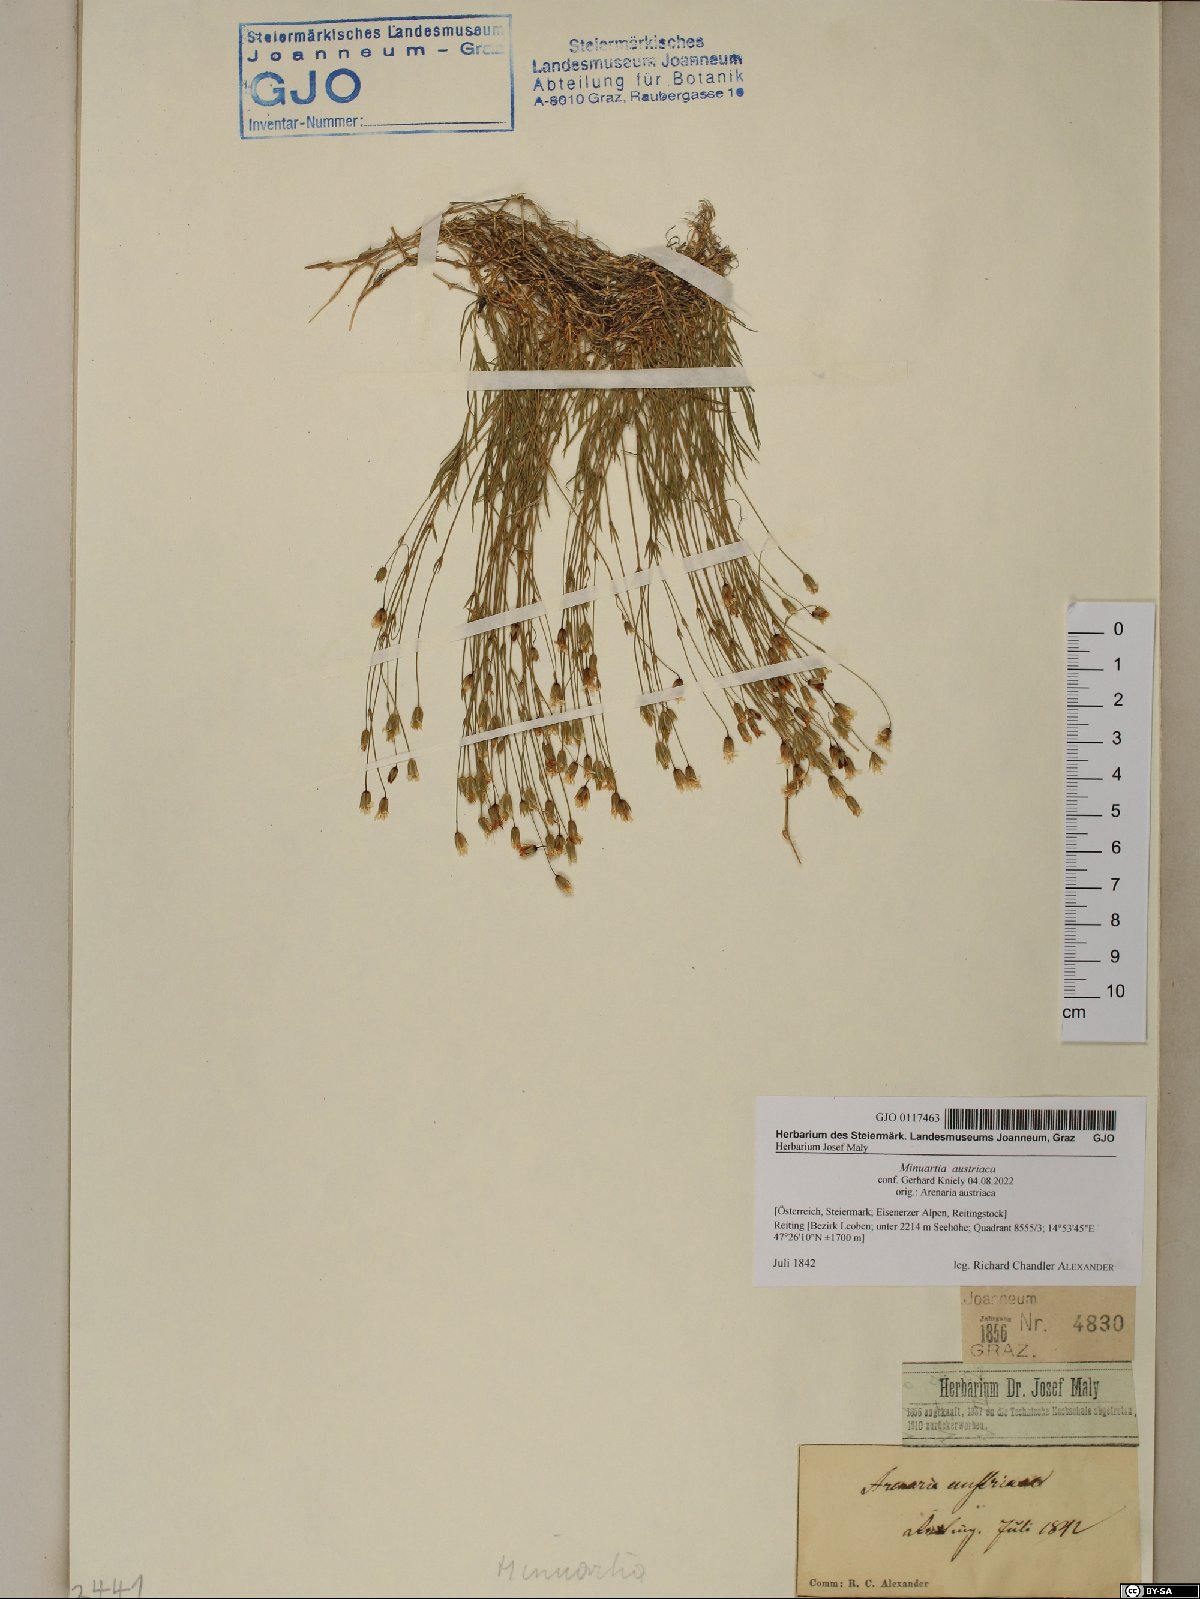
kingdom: Plantae
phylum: Tracheophyta
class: Magnoliopsida
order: Caryophyllales
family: Caryophyllaceae
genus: Sabulina
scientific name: Sabulina austriaca
